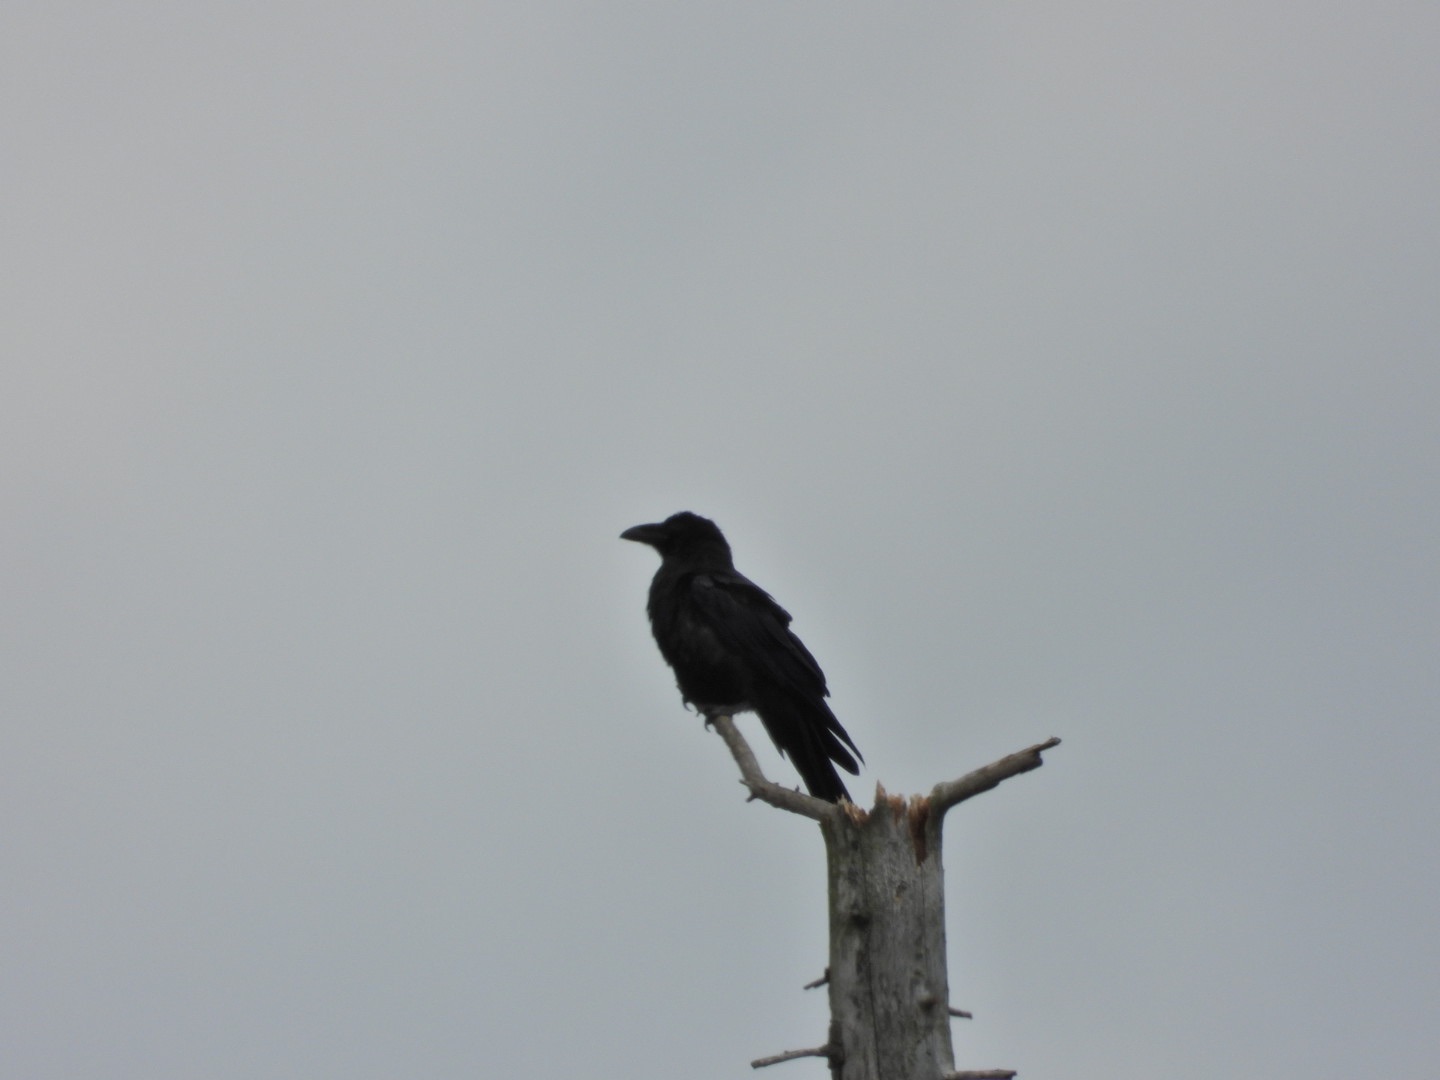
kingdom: Animalia
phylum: Chordata
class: Aves
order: Passeriformes
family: Corvidae
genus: Corvus
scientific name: Corvus corax
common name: Ravn
